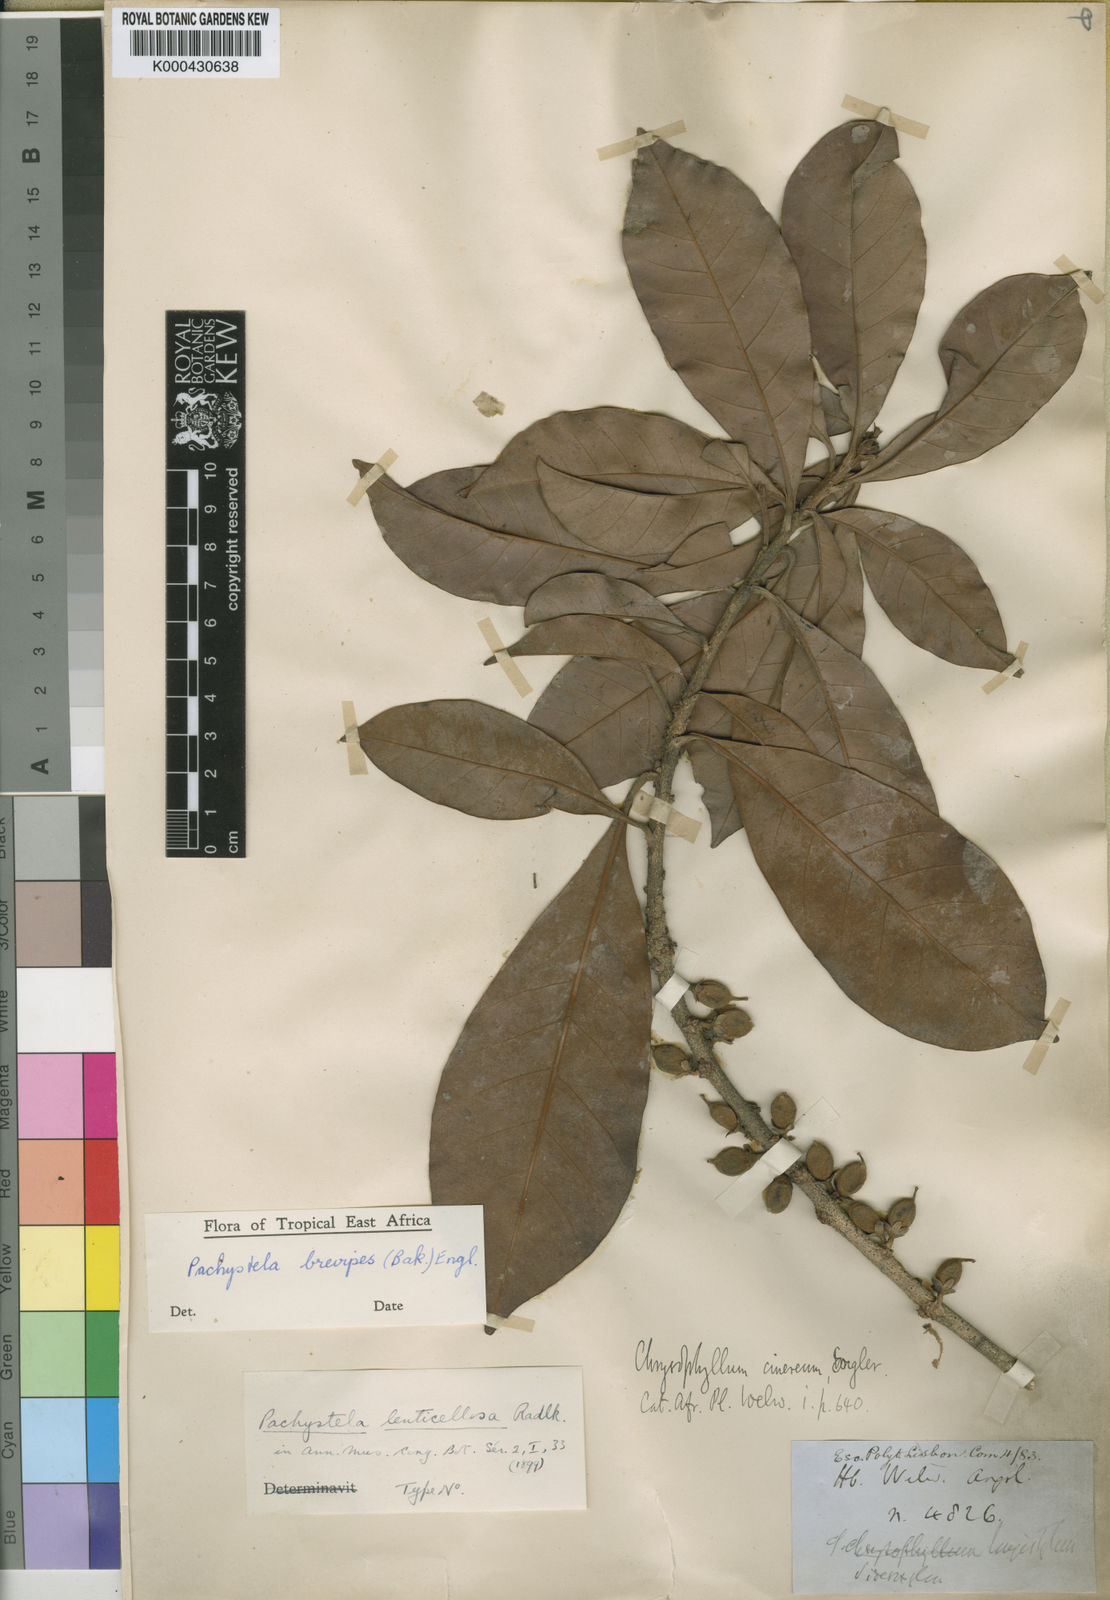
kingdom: Plantae
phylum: Tracheophyta
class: Magnoliopsida
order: Ericales
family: Sapotaceae
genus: Synsepalum
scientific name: Synsepalum brevipes
